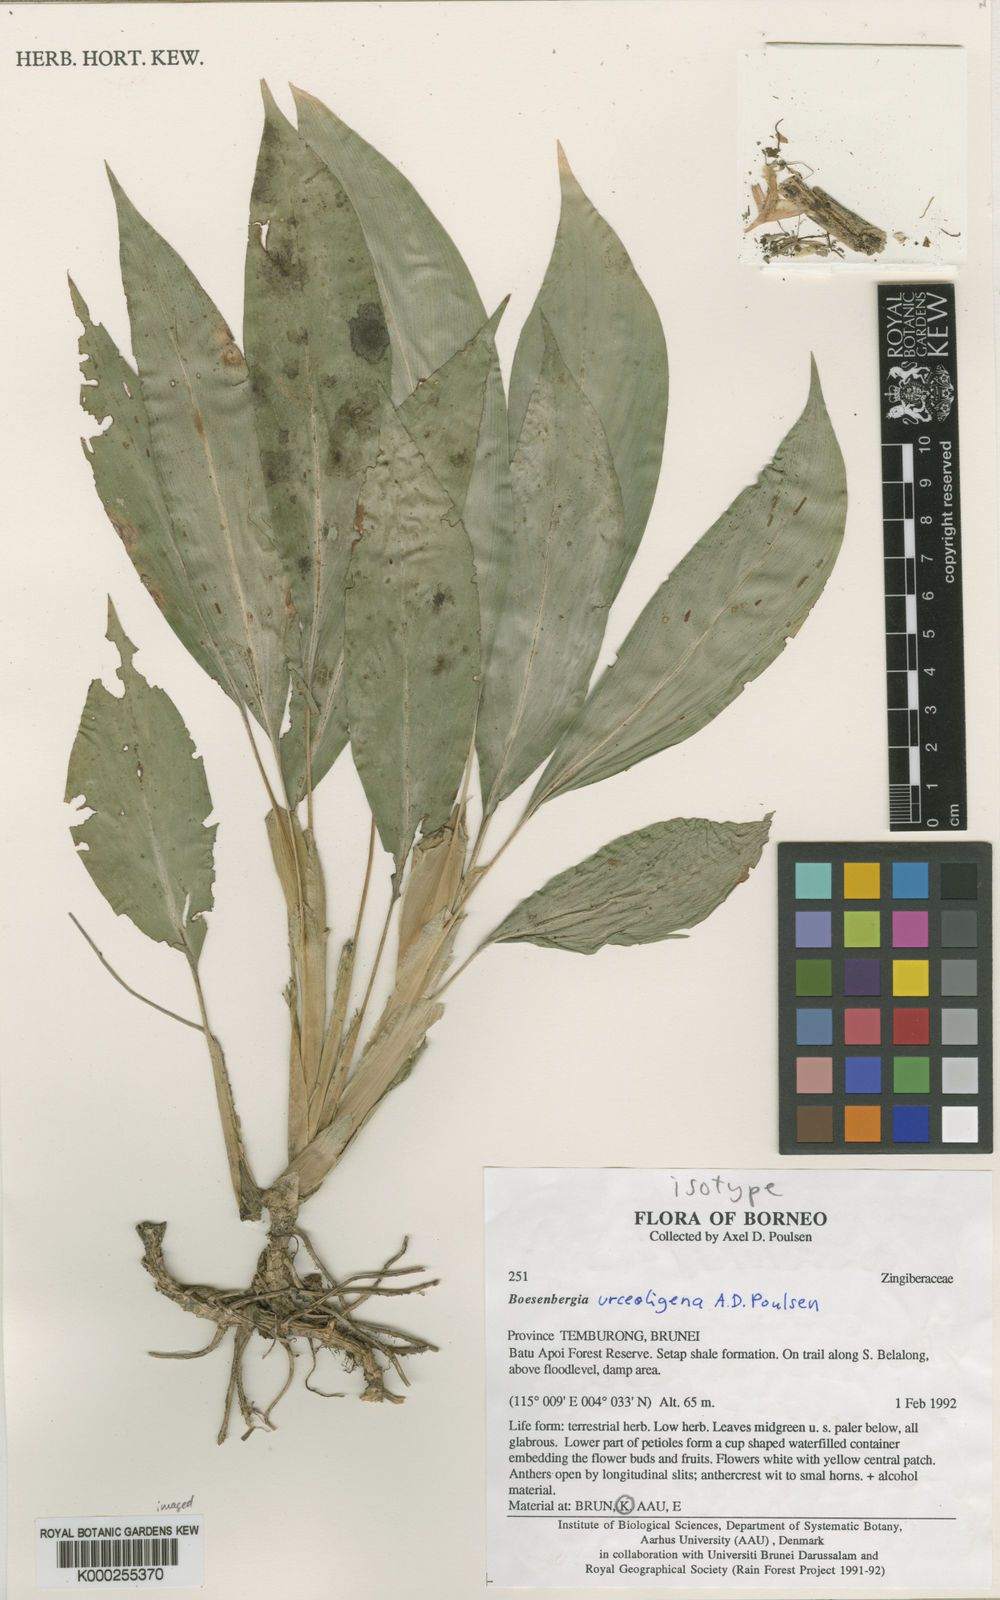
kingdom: Plantae
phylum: Tracheophyta
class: Liliopsida
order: Zingiberales
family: Zingiberaceae
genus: Boesenbergia
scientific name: Boesenbergia urceoligena
